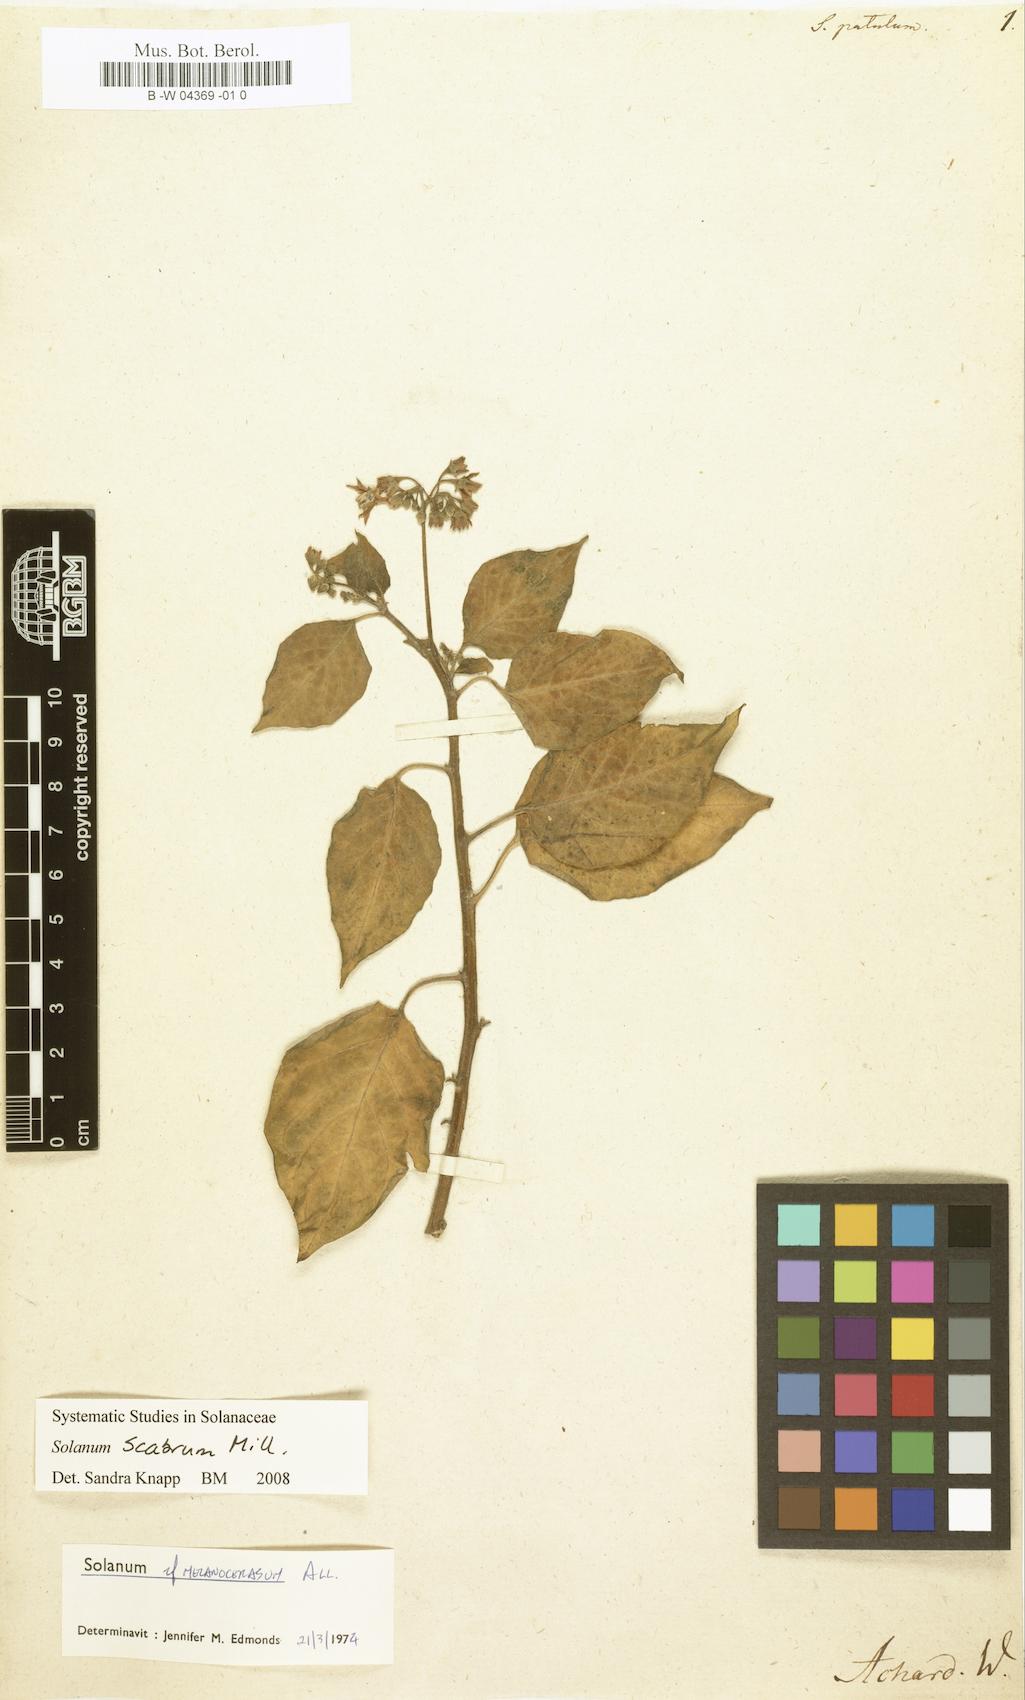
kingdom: Plantae
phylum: Tracheophyta
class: Magnoliopsida
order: Solanales
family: Solanaceae
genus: Solanum
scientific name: Solanum
